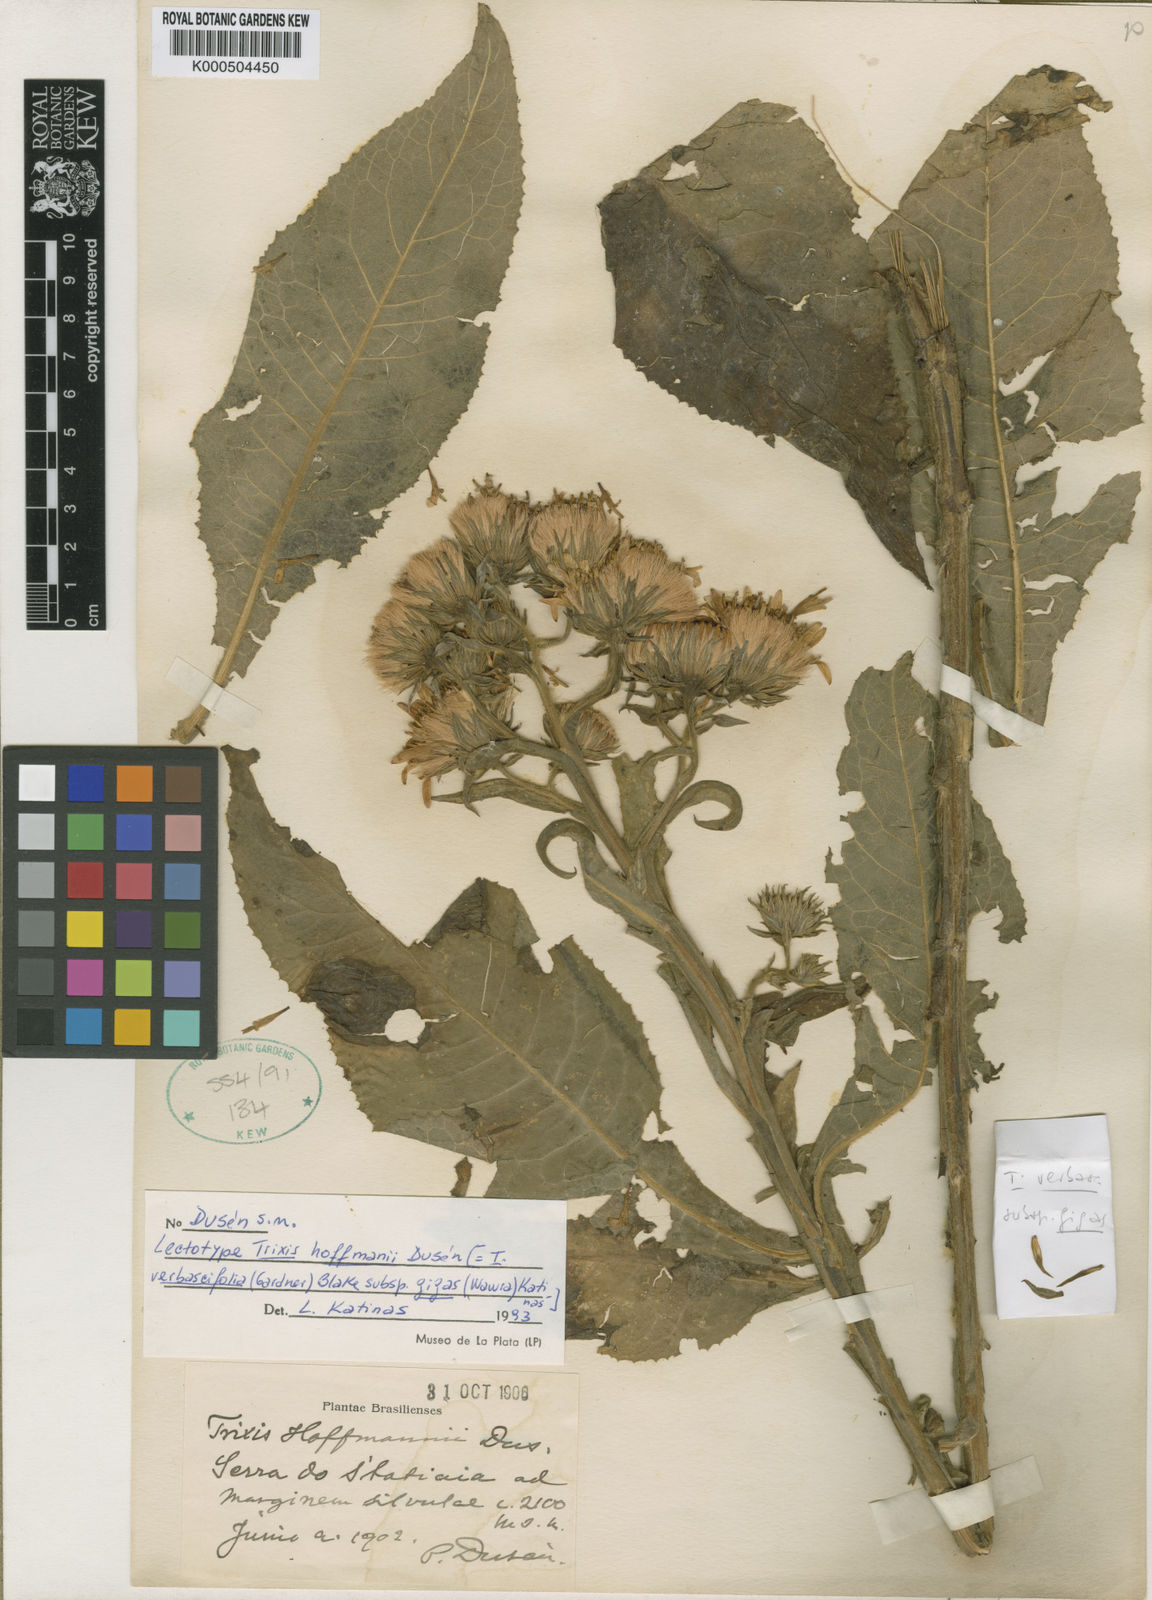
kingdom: Plantae
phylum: Tracheophyta
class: Magnoliopsida
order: Asterales
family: Asteraceae
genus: Trixis
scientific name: Trixis verbascifolia
